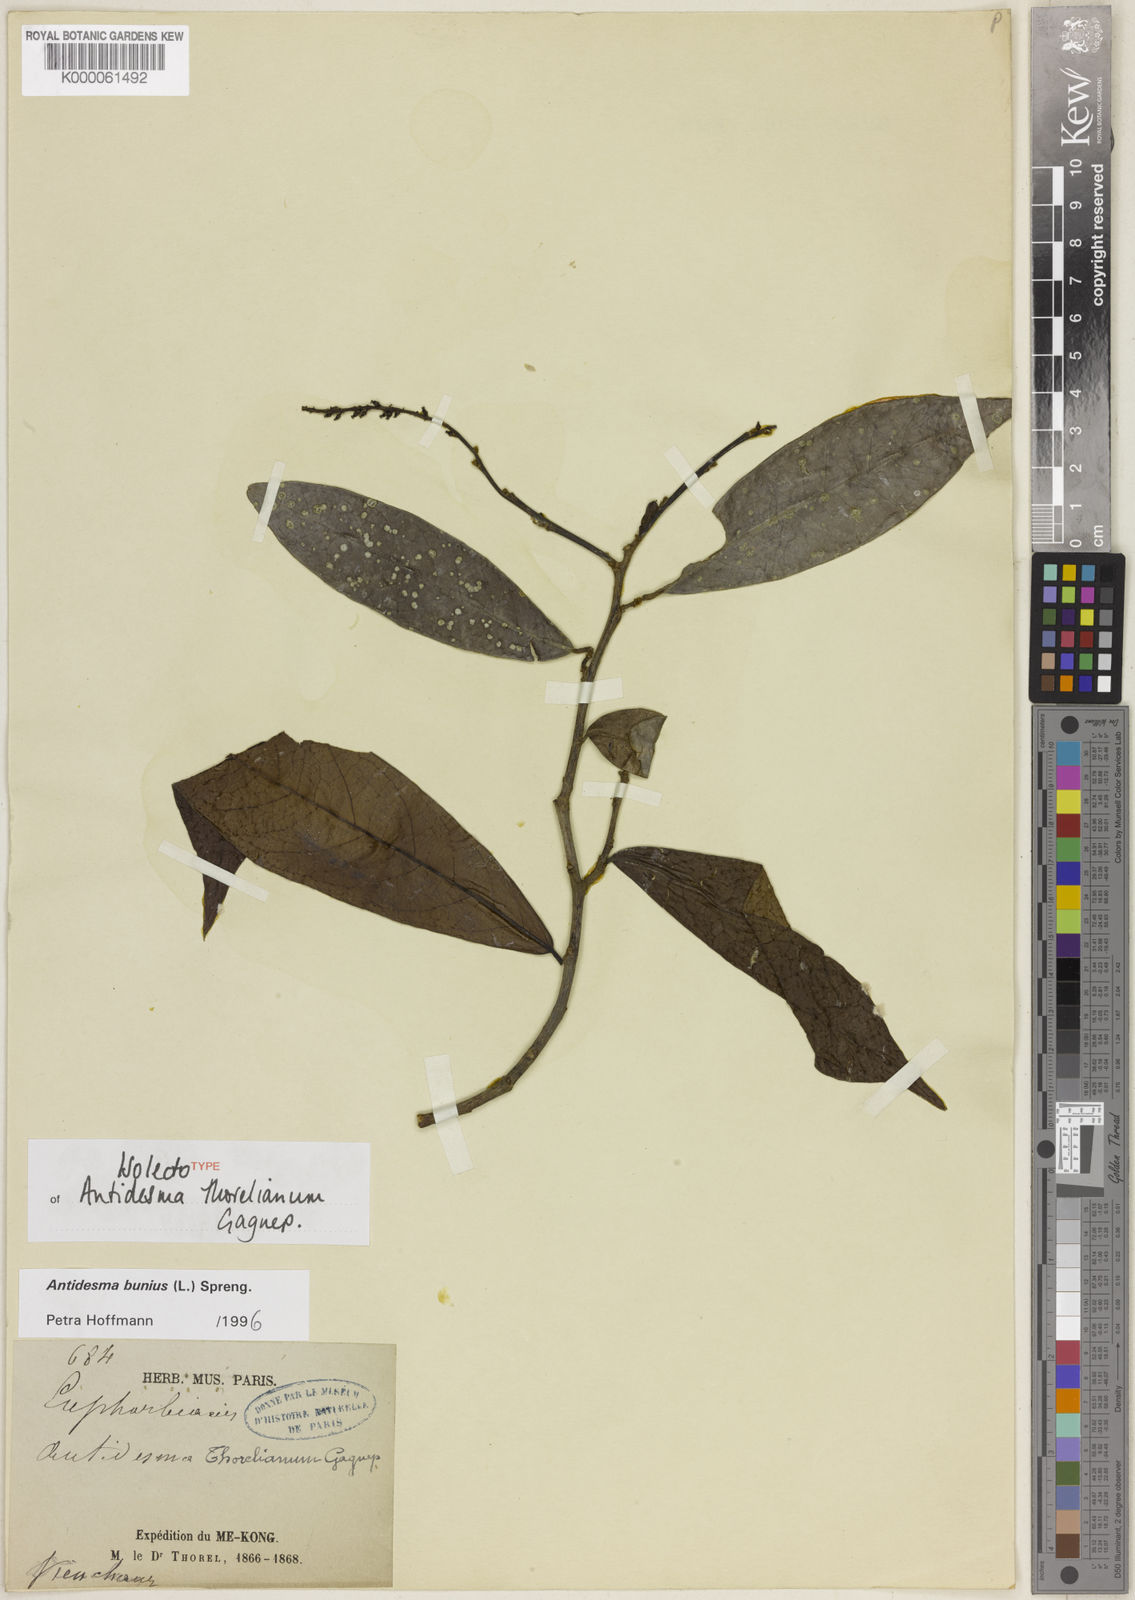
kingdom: Plantae
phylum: Tracheophyta
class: Magnoliopsida
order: Malpighiales
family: Phyllanthaceae
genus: Antidesma
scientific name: Antidesma bunius
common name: Chinese-laurel
